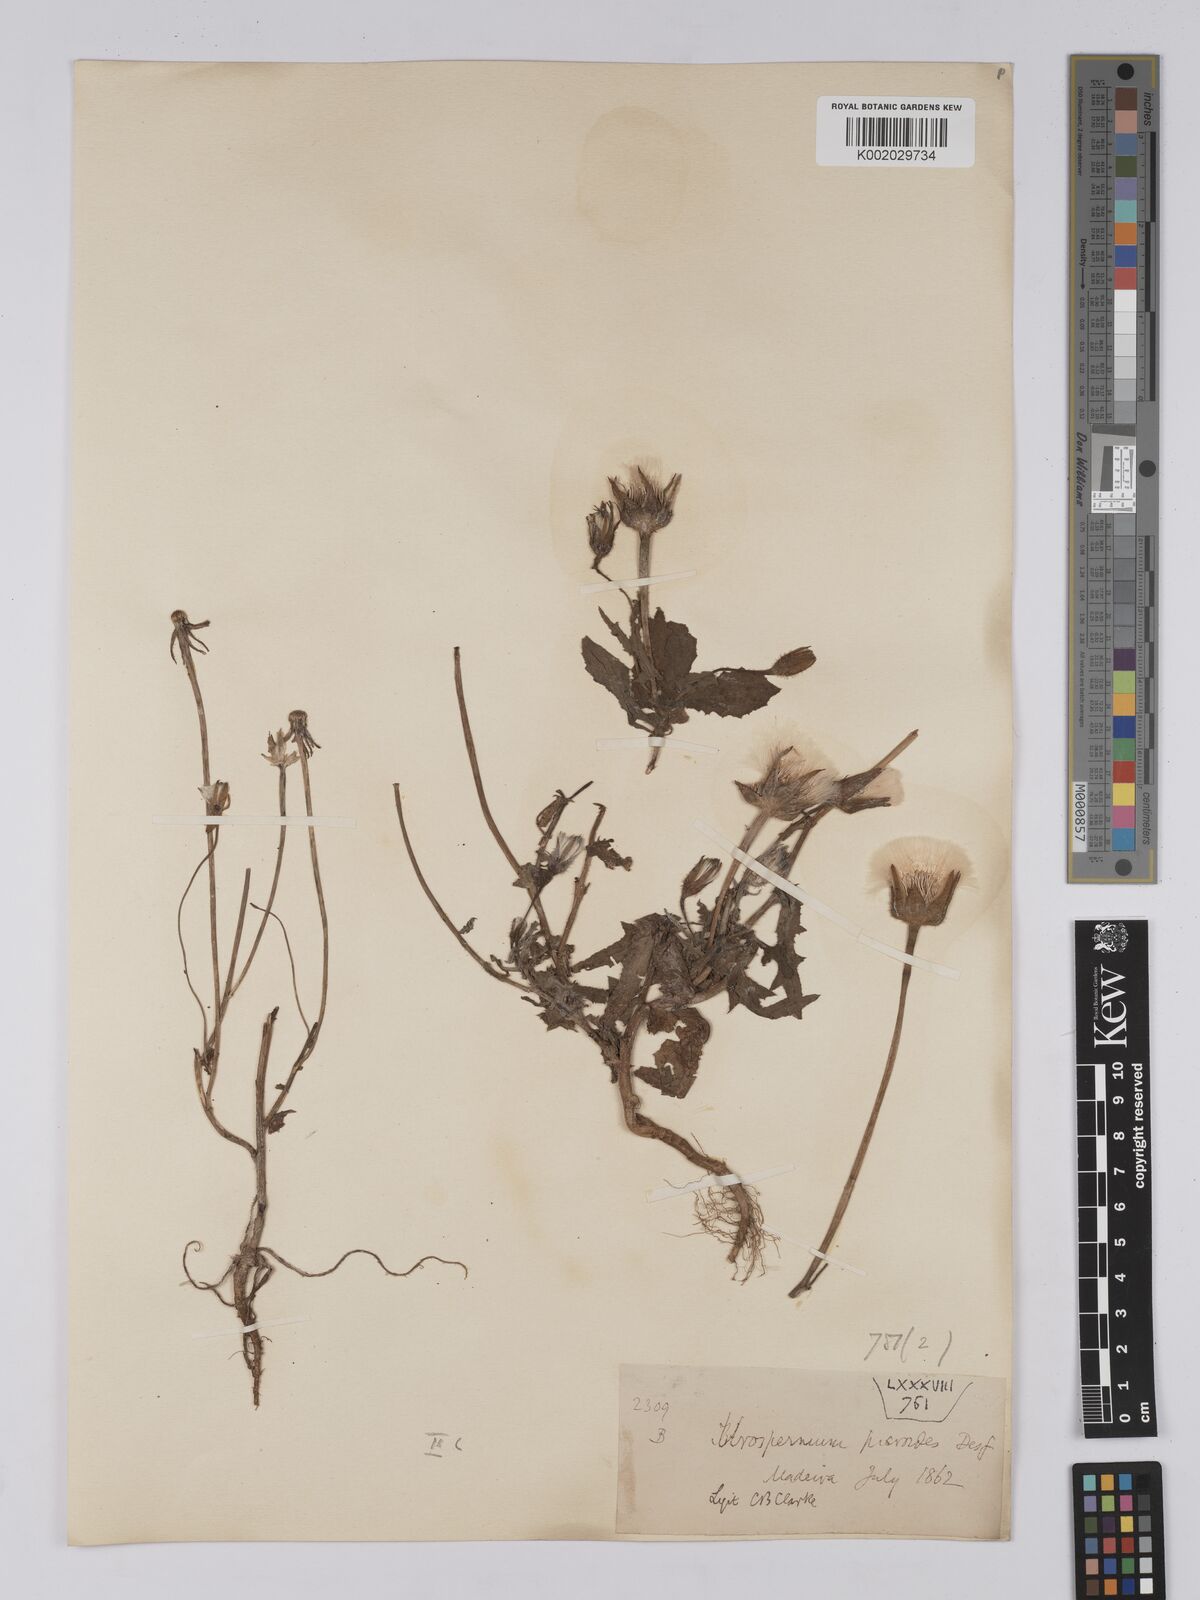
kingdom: Plantae
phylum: Tracheophyta
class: Magnoliopsida
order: Asterales
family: Asteraceae
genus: Urospermum
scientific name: Urospermum picroides
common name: False hawkbit
